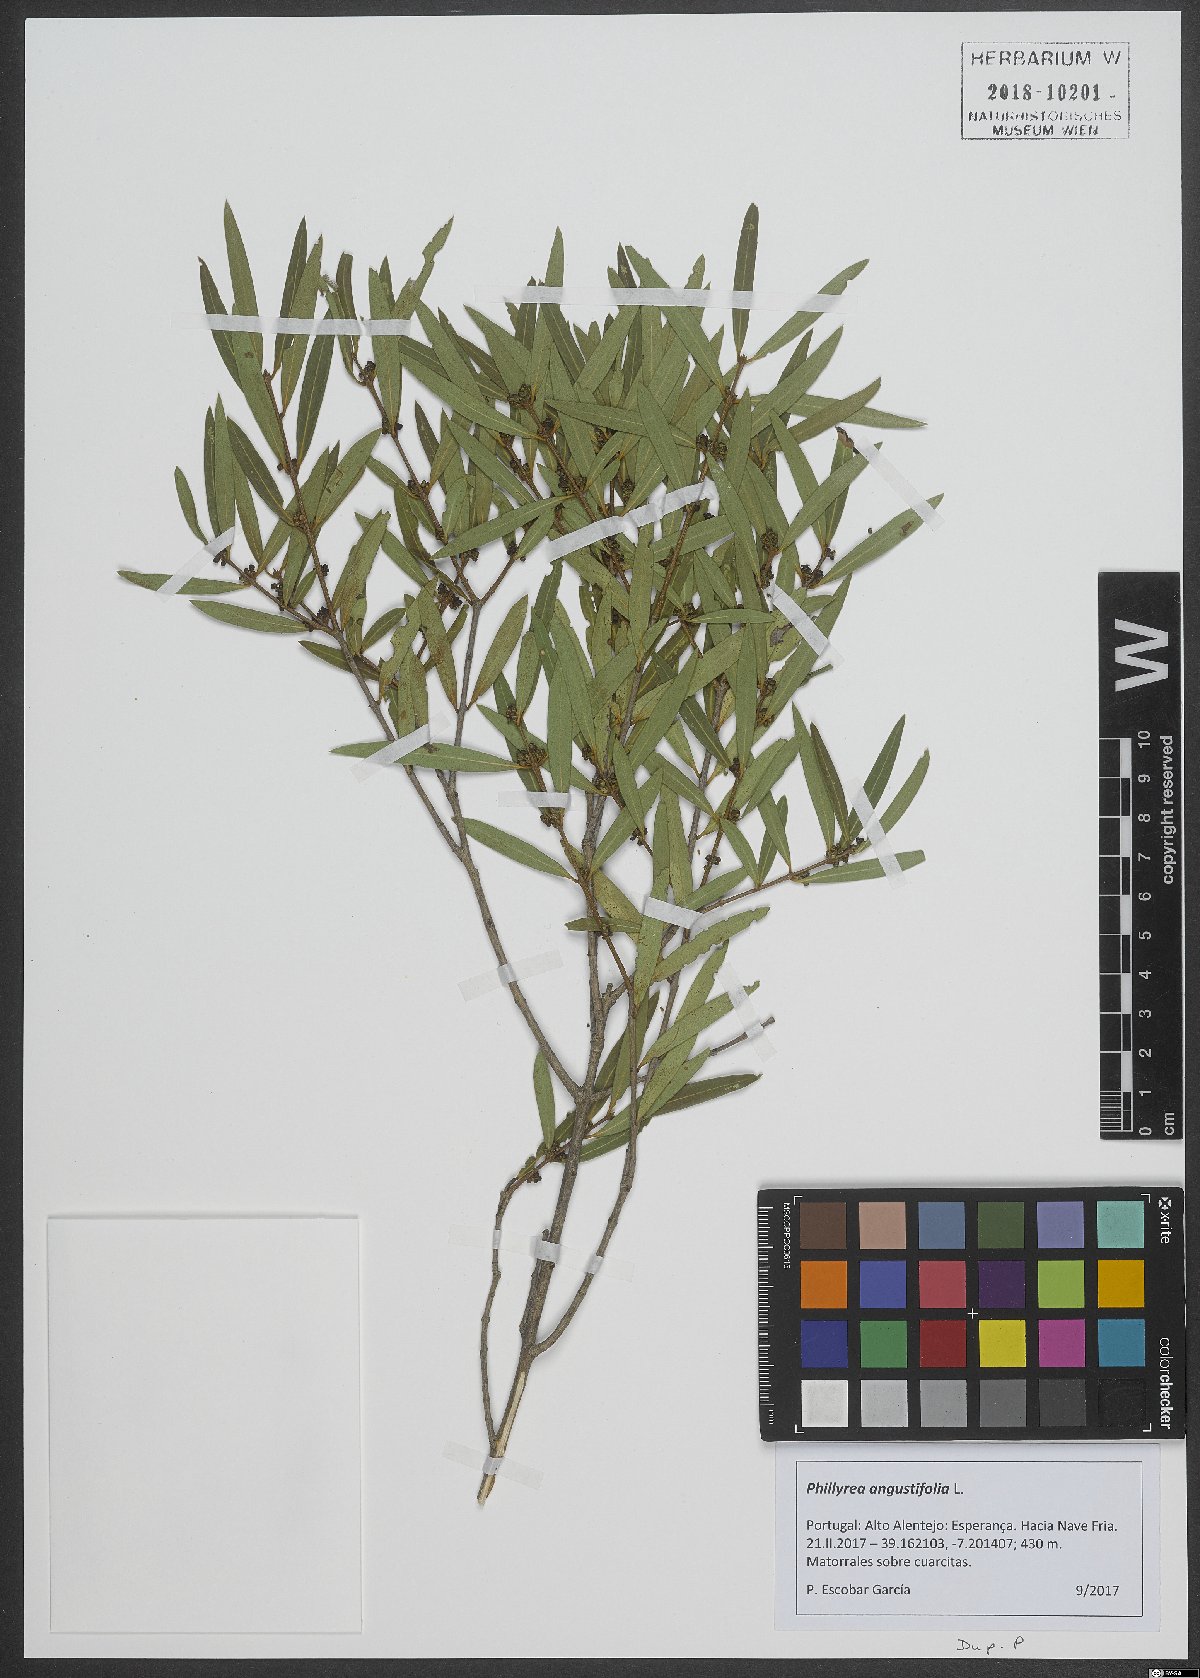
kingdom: Plantae
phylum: Tracheophyta
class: Magnoliopsida
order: Lamiales
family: Oleaceae
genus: Phillyrea
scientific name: Phillyrea angustifolia
